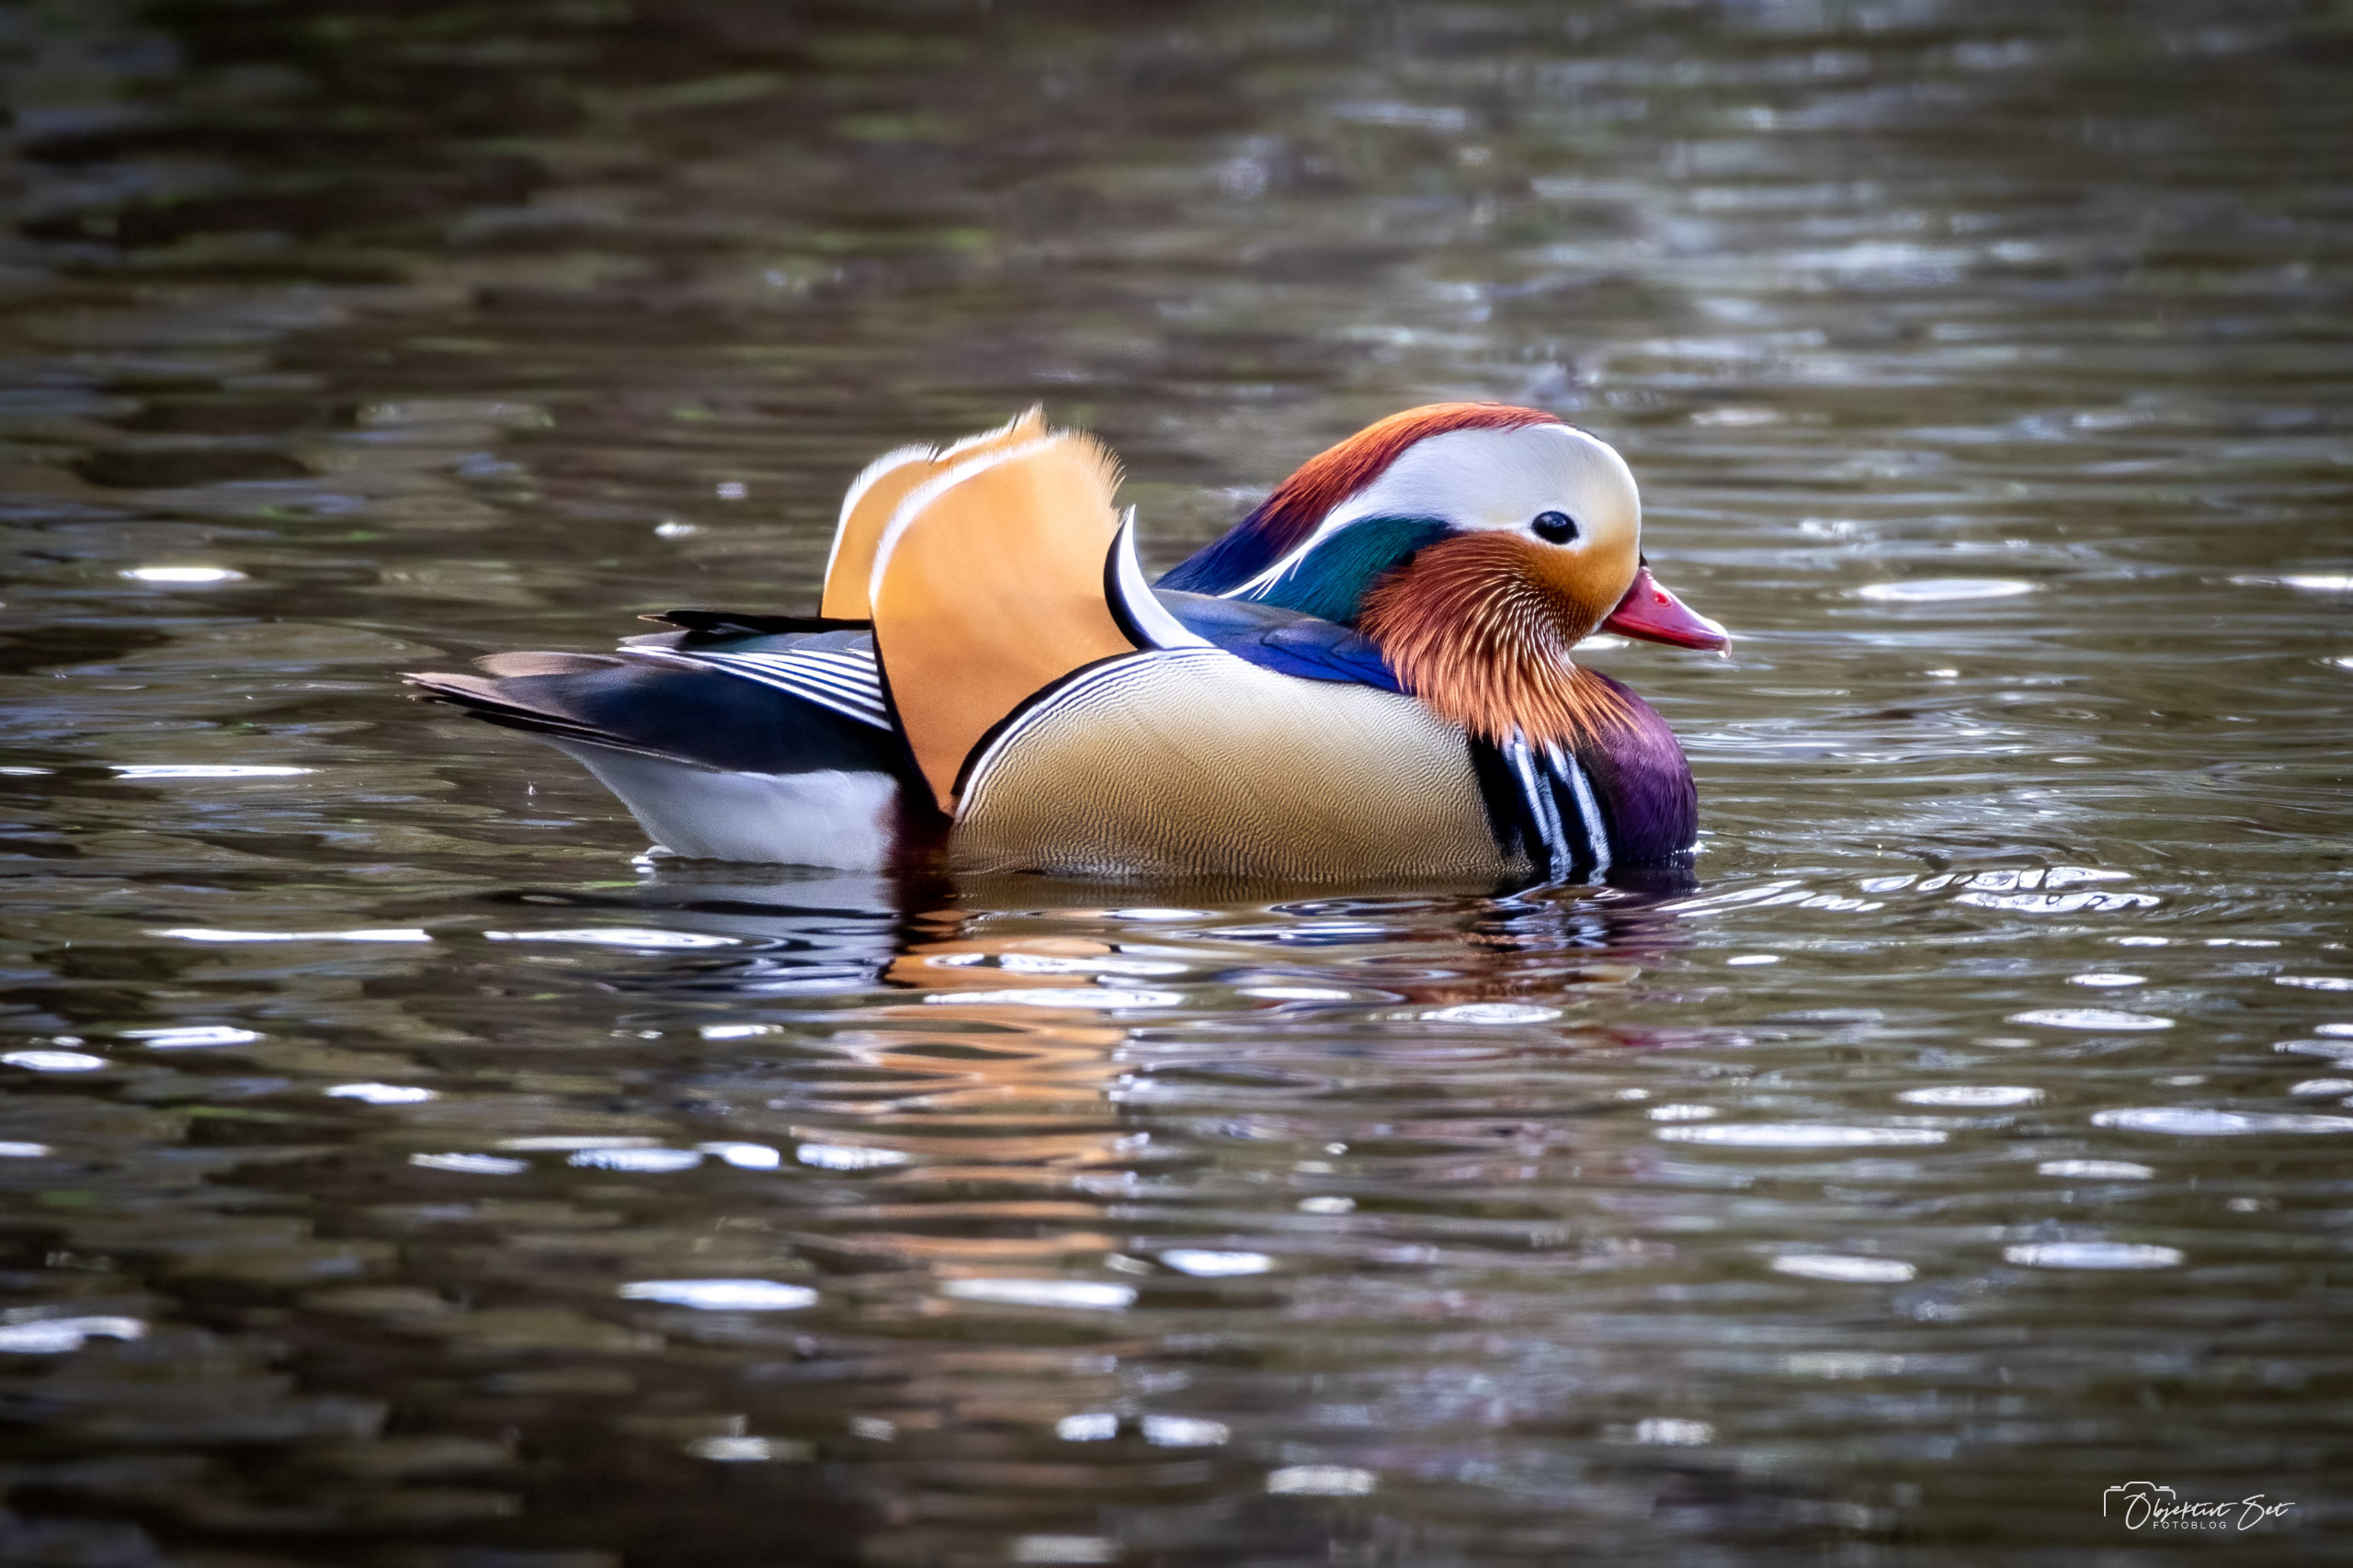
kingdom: Animalia
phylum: Chordata
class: Aves
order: Anseriformes
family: Anatidae
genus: Aix
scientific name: Aix galericulata
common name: Mandarinand
